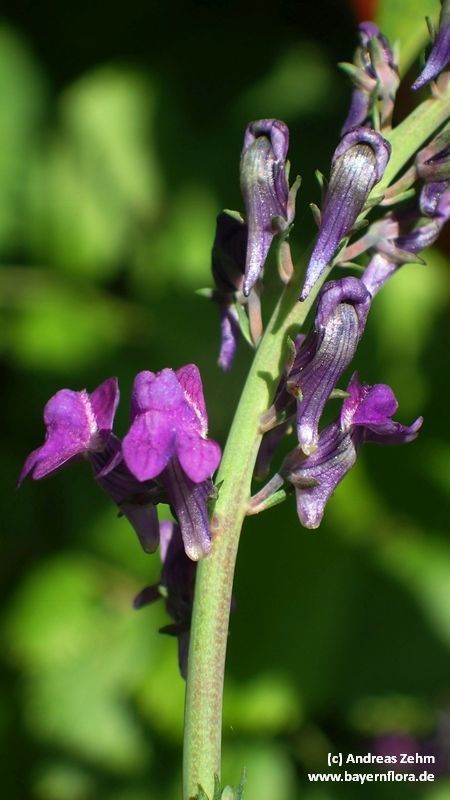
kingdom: Plantae
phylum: Tracheophyta
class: Magnoliopsida
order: Lamiales
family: Plantaginaceae
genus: Linaria
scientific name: Linaria purpurea
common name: Purple toadflax
